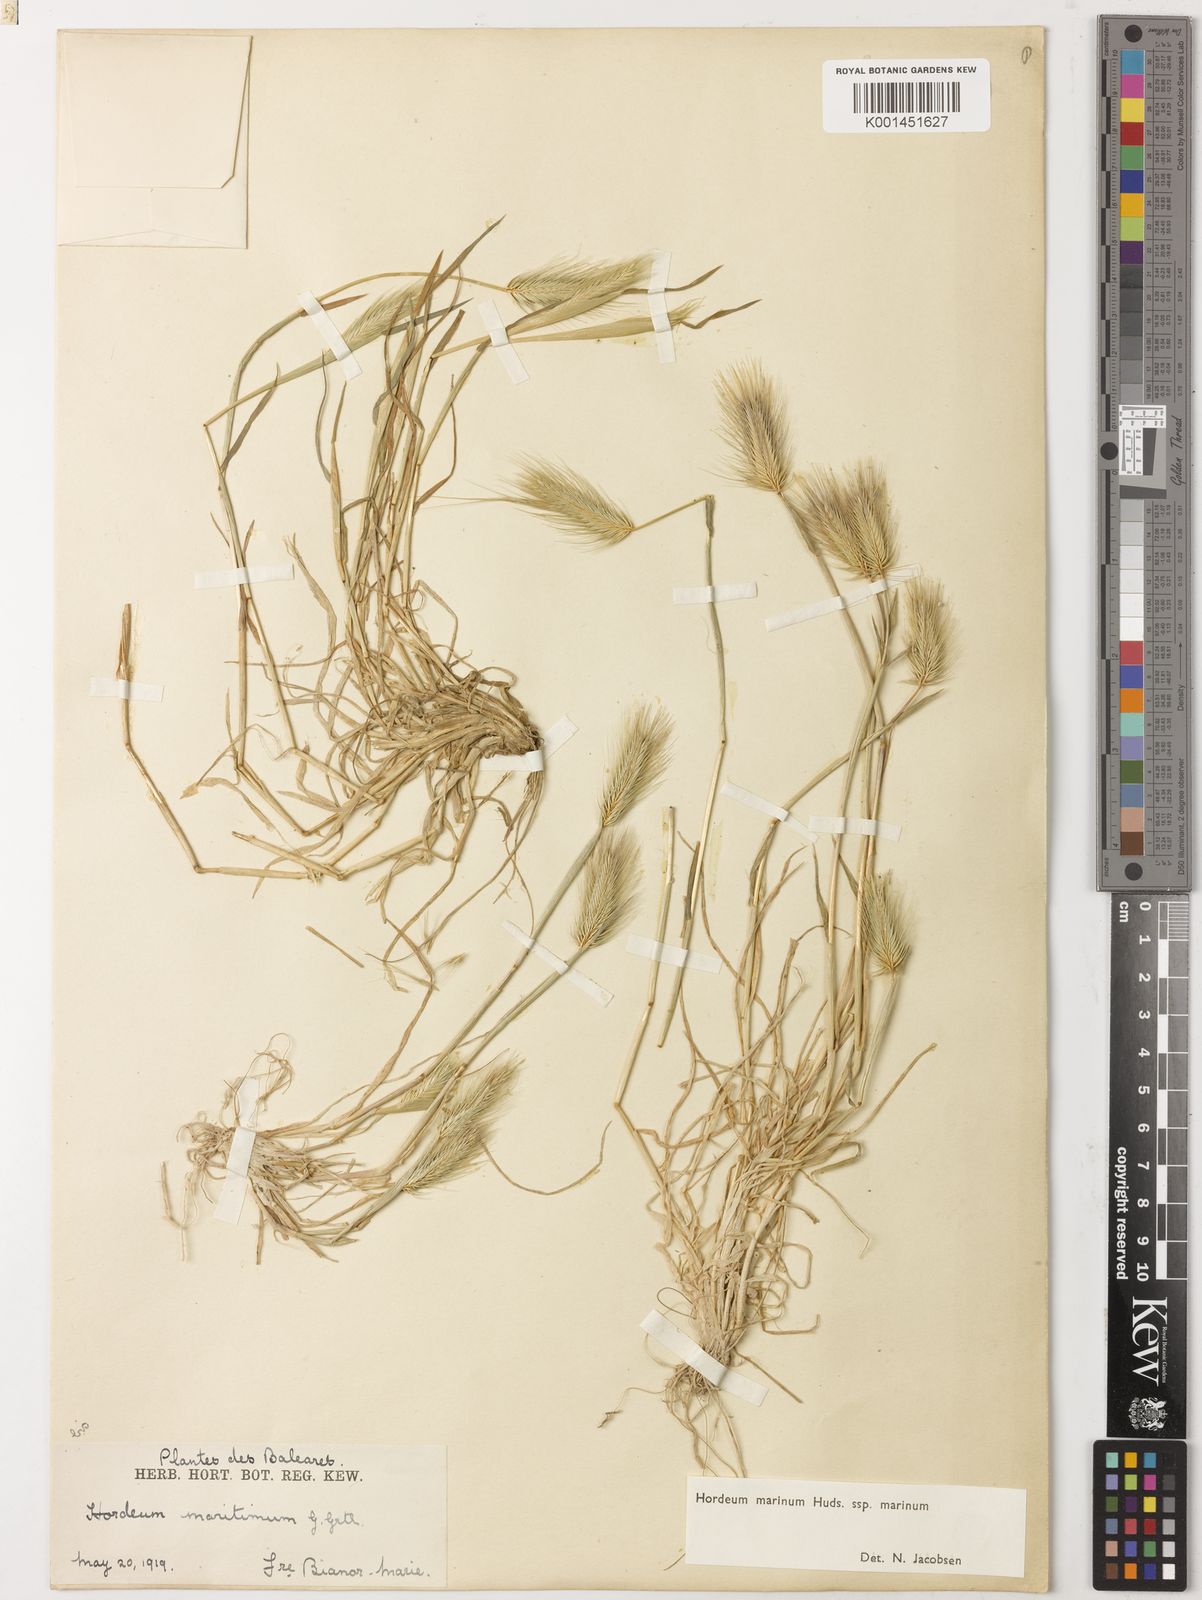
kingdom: Plantae
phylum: Tracheophyta
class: Liliopsida
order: Poales
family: Poaceae
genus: Hordeum
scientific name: Hordeum marinum
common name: Sea barley
